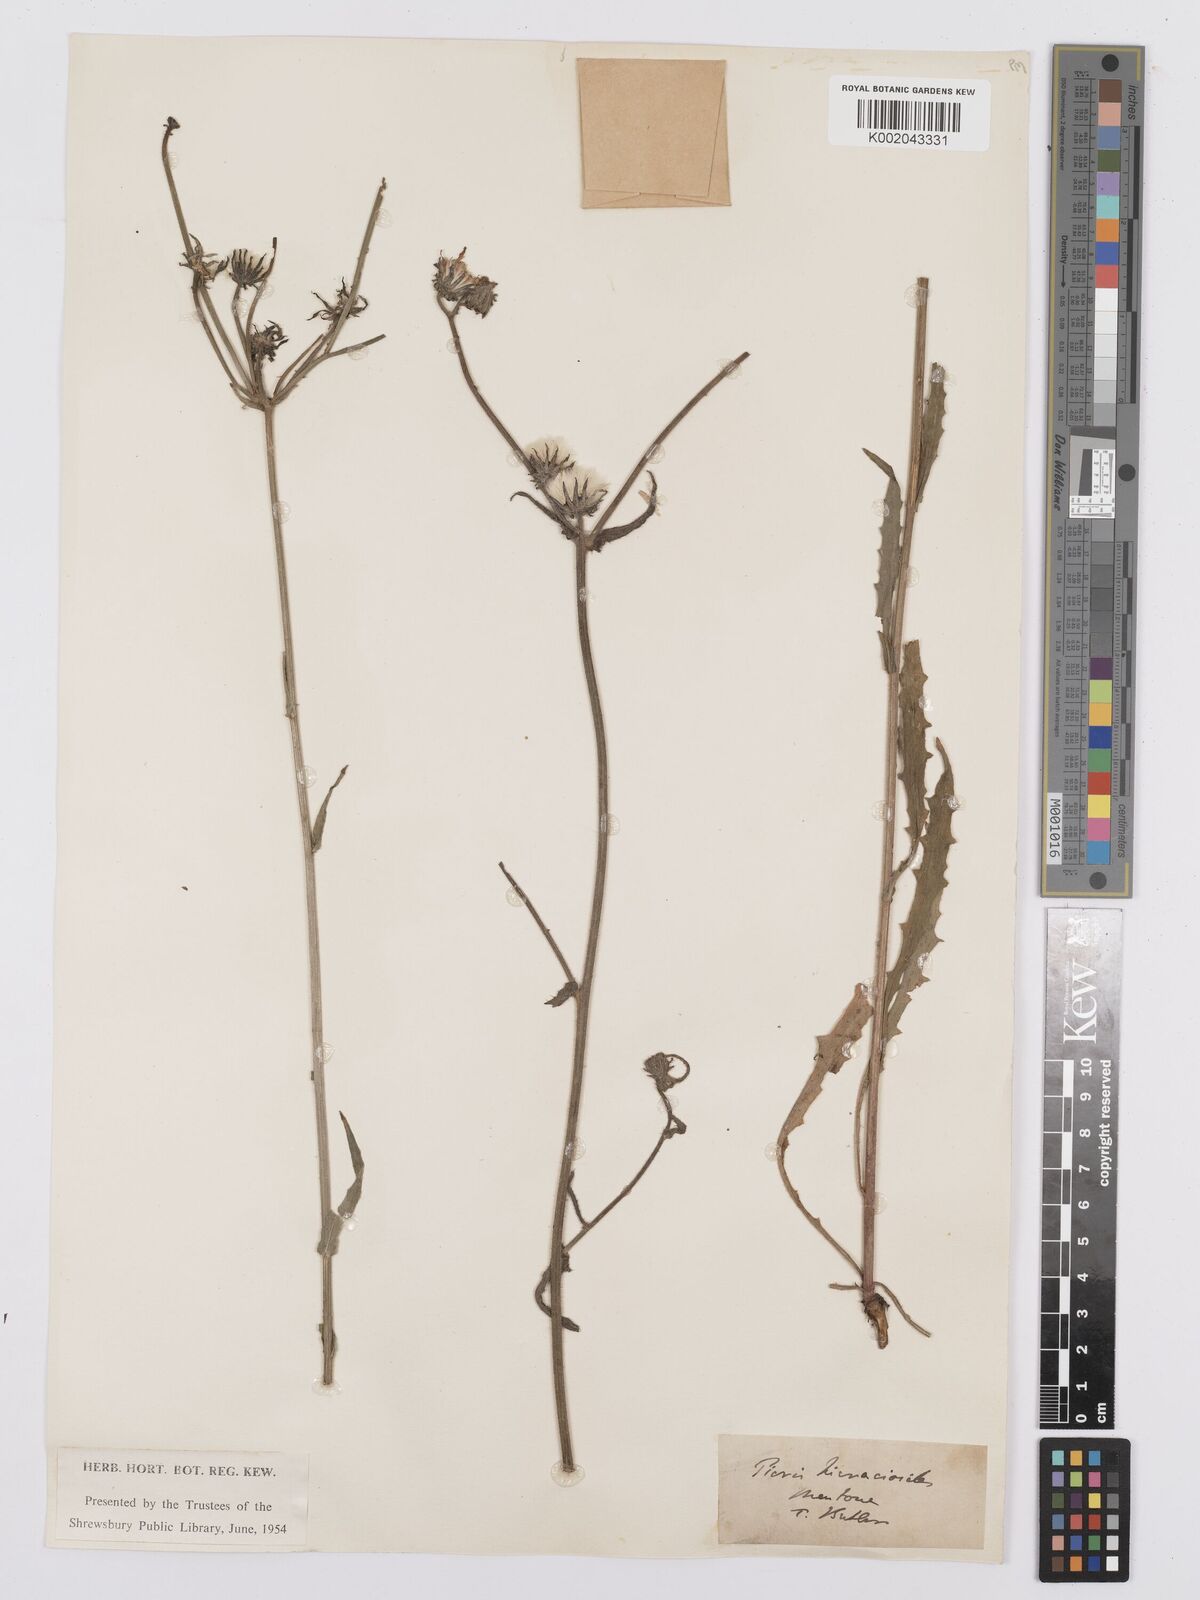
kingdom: Plantae
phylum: Tracheophyta
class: Magnoliopsida
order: Asterales
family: Asteraceae
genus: Picris
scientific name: Picris hieracioides
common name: Hawkweed oxtongue
